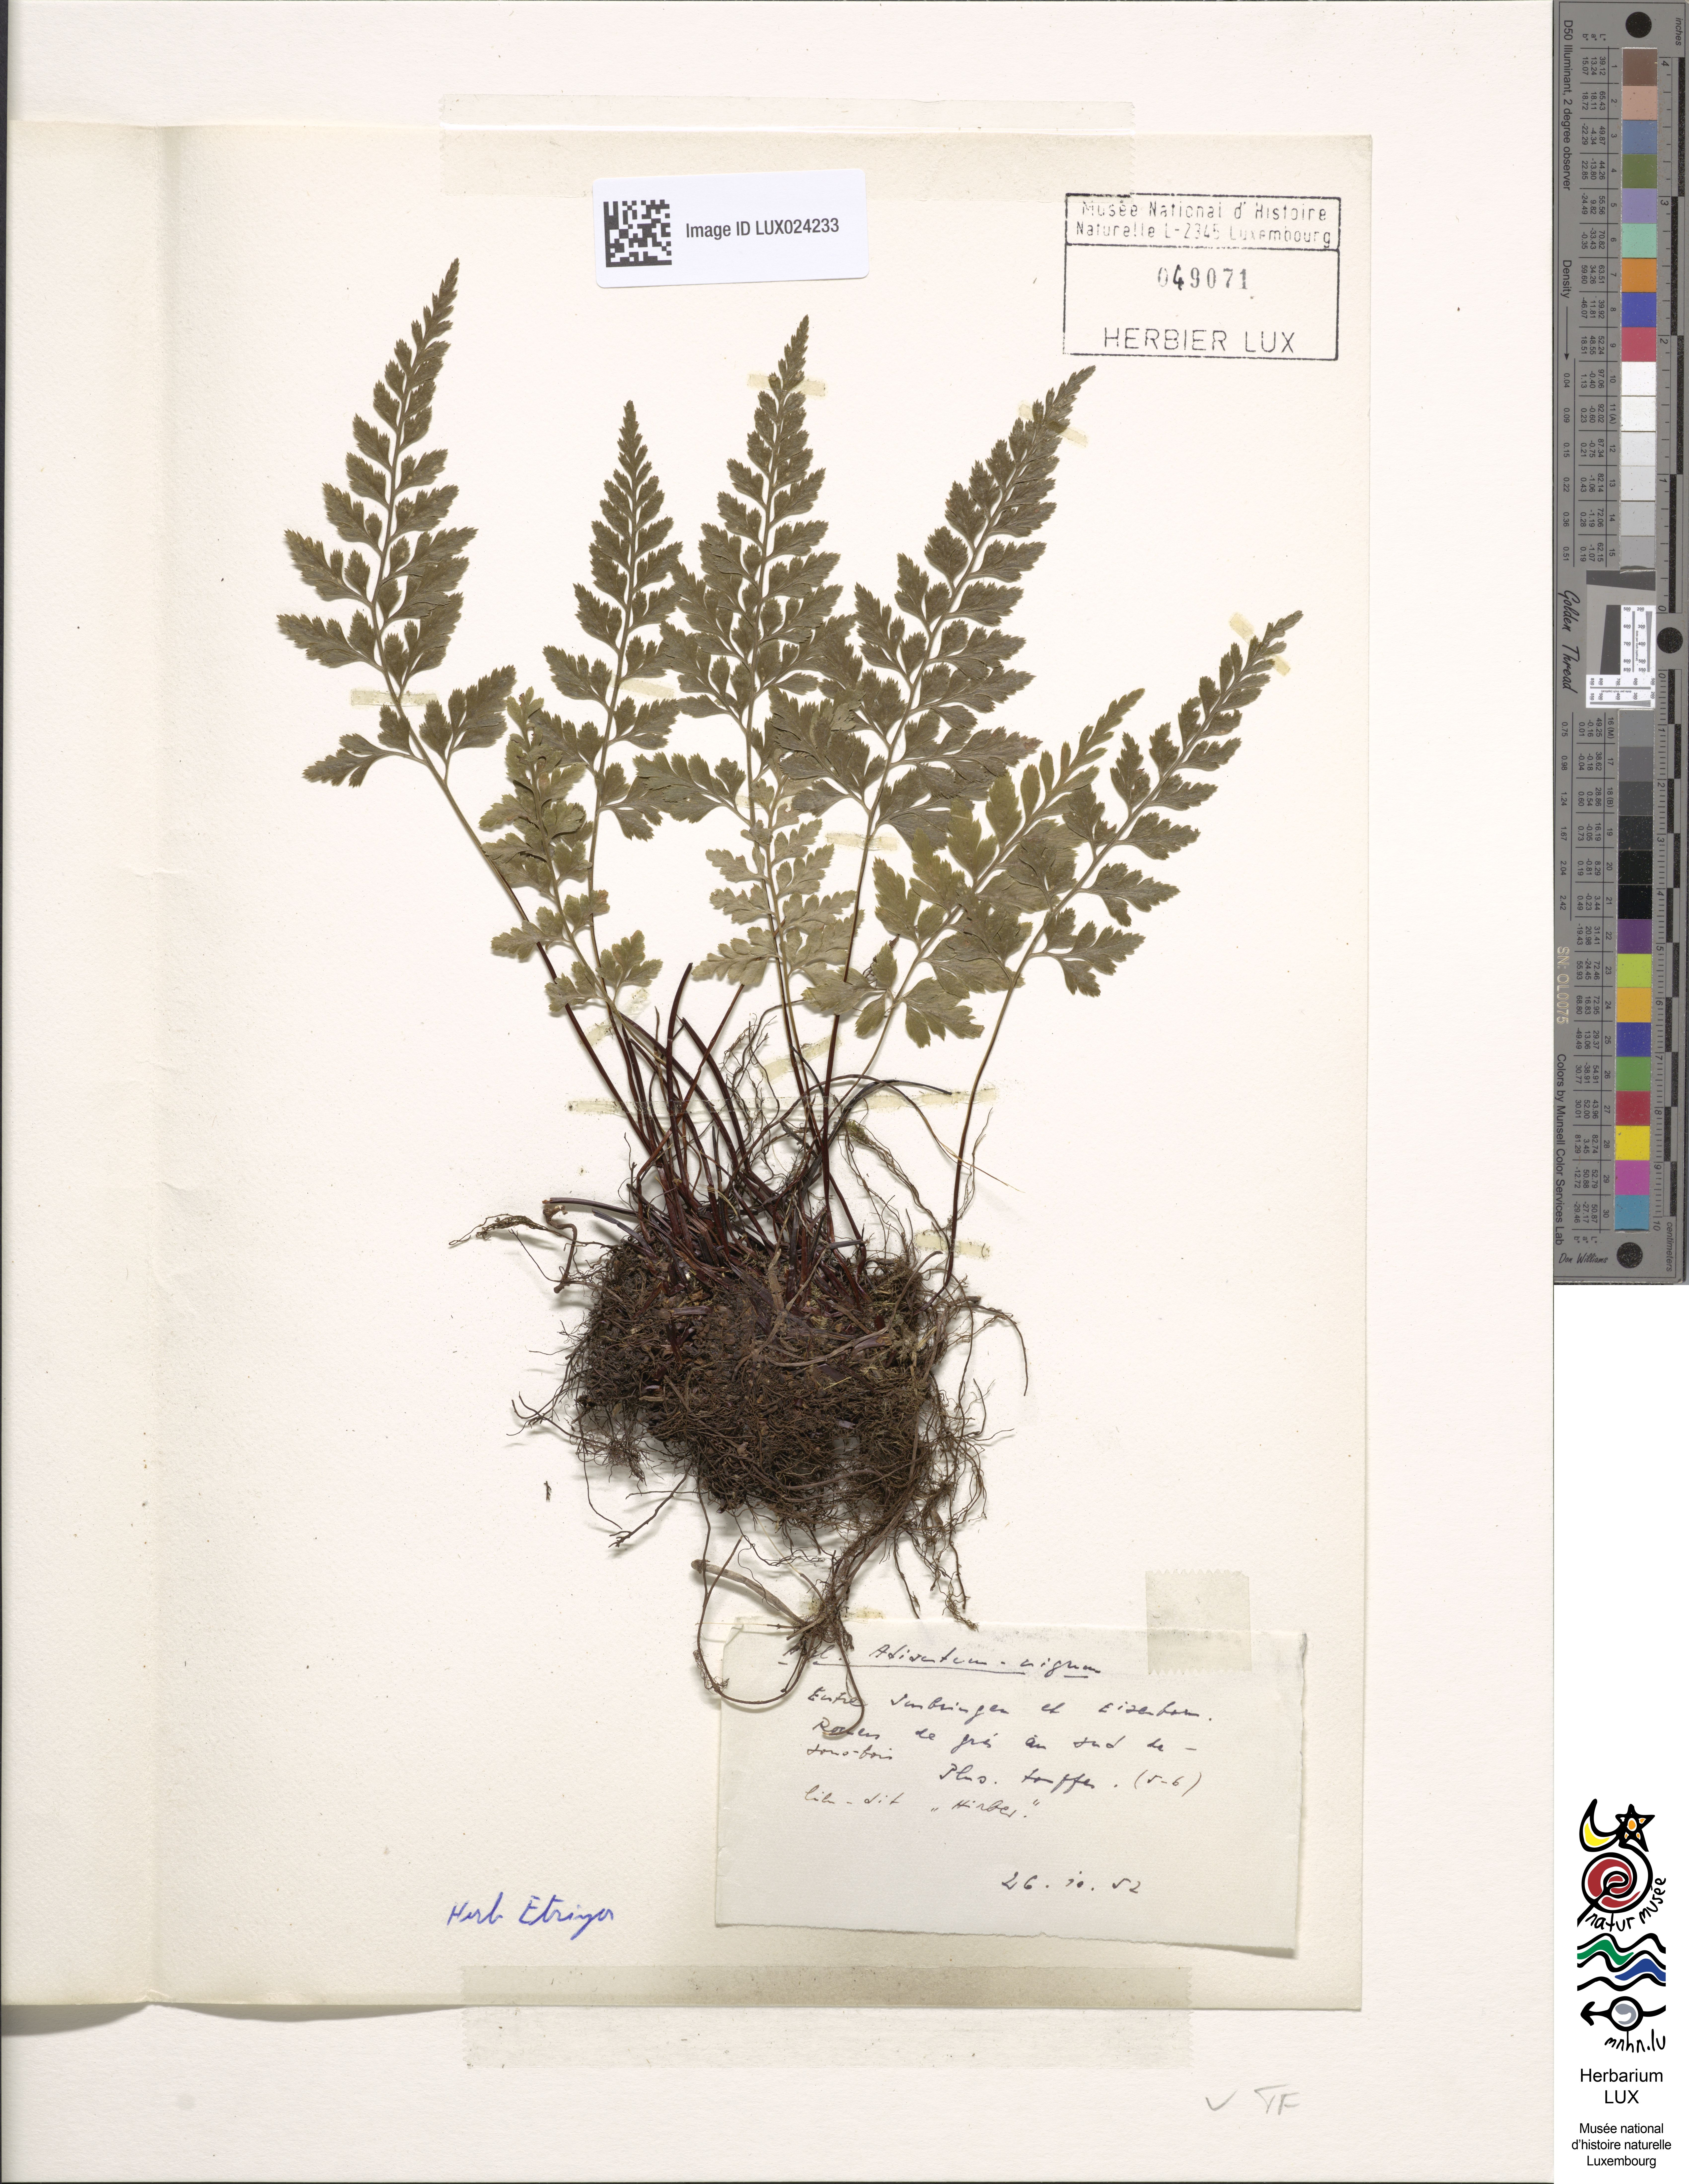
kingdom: Plantae
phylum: Tracheophyta
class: Polypodiopsida
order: Polypodiales
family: Aspleniaceae
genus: Asplenium
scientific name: Asplenium adiantum-nigrum
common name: Black spleenwort
